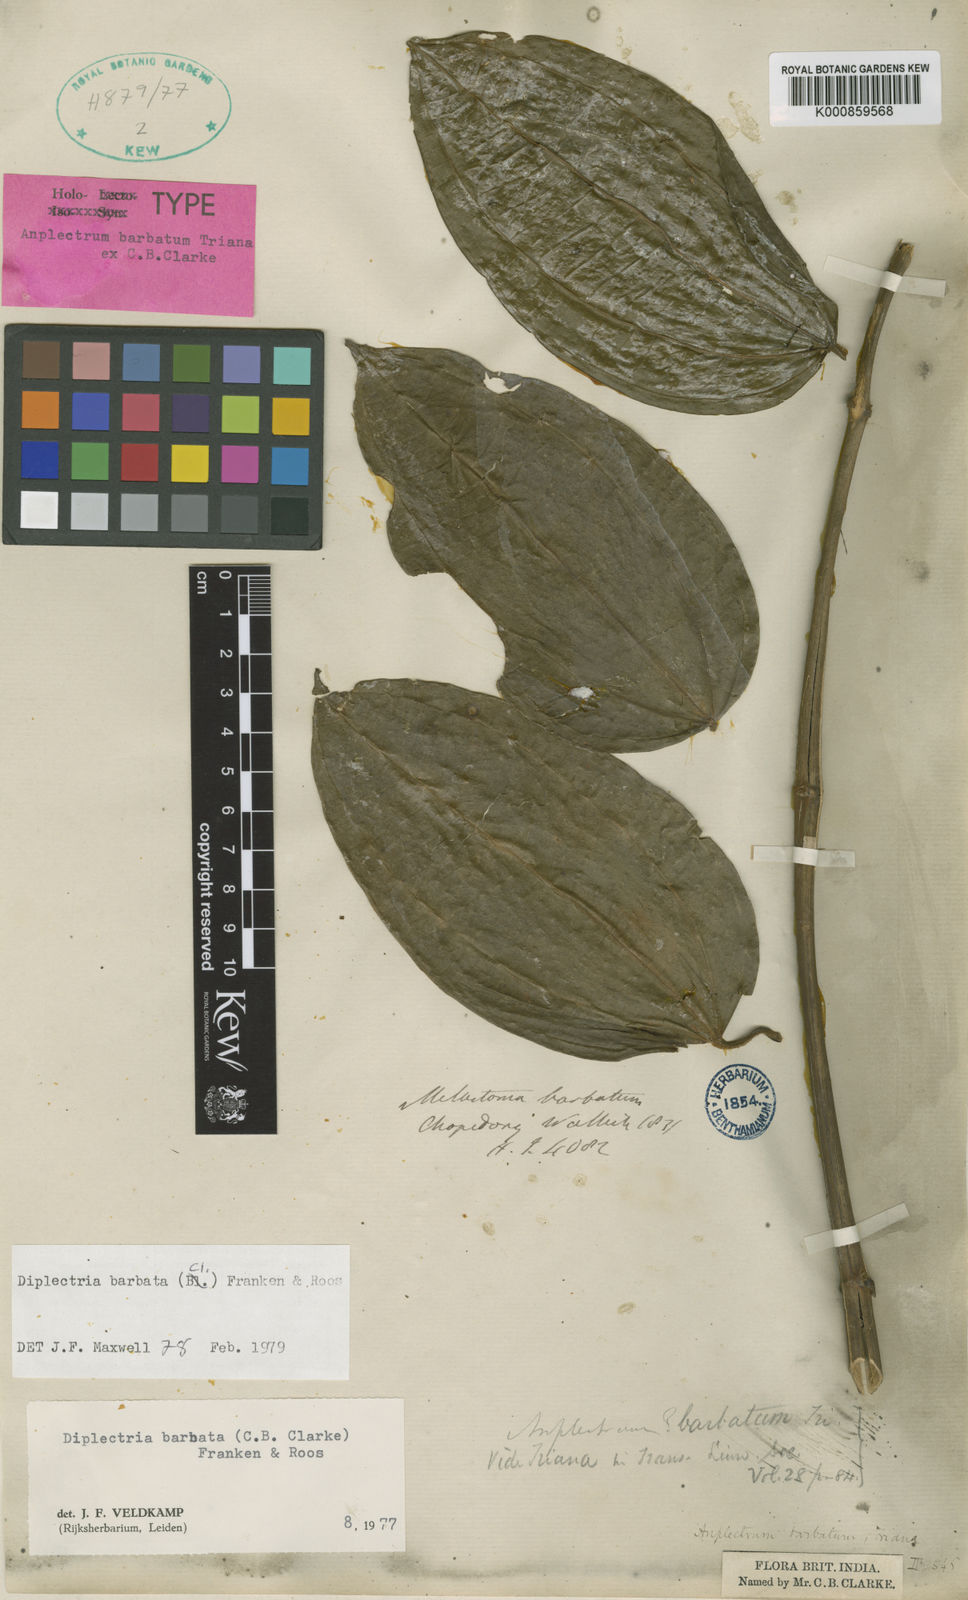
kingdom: Plantae
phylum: Tracheophyta
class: Magnoliopsida
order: Myrtales
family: Melastomataceae
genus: Diplectria
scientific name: Diplectria barbata
